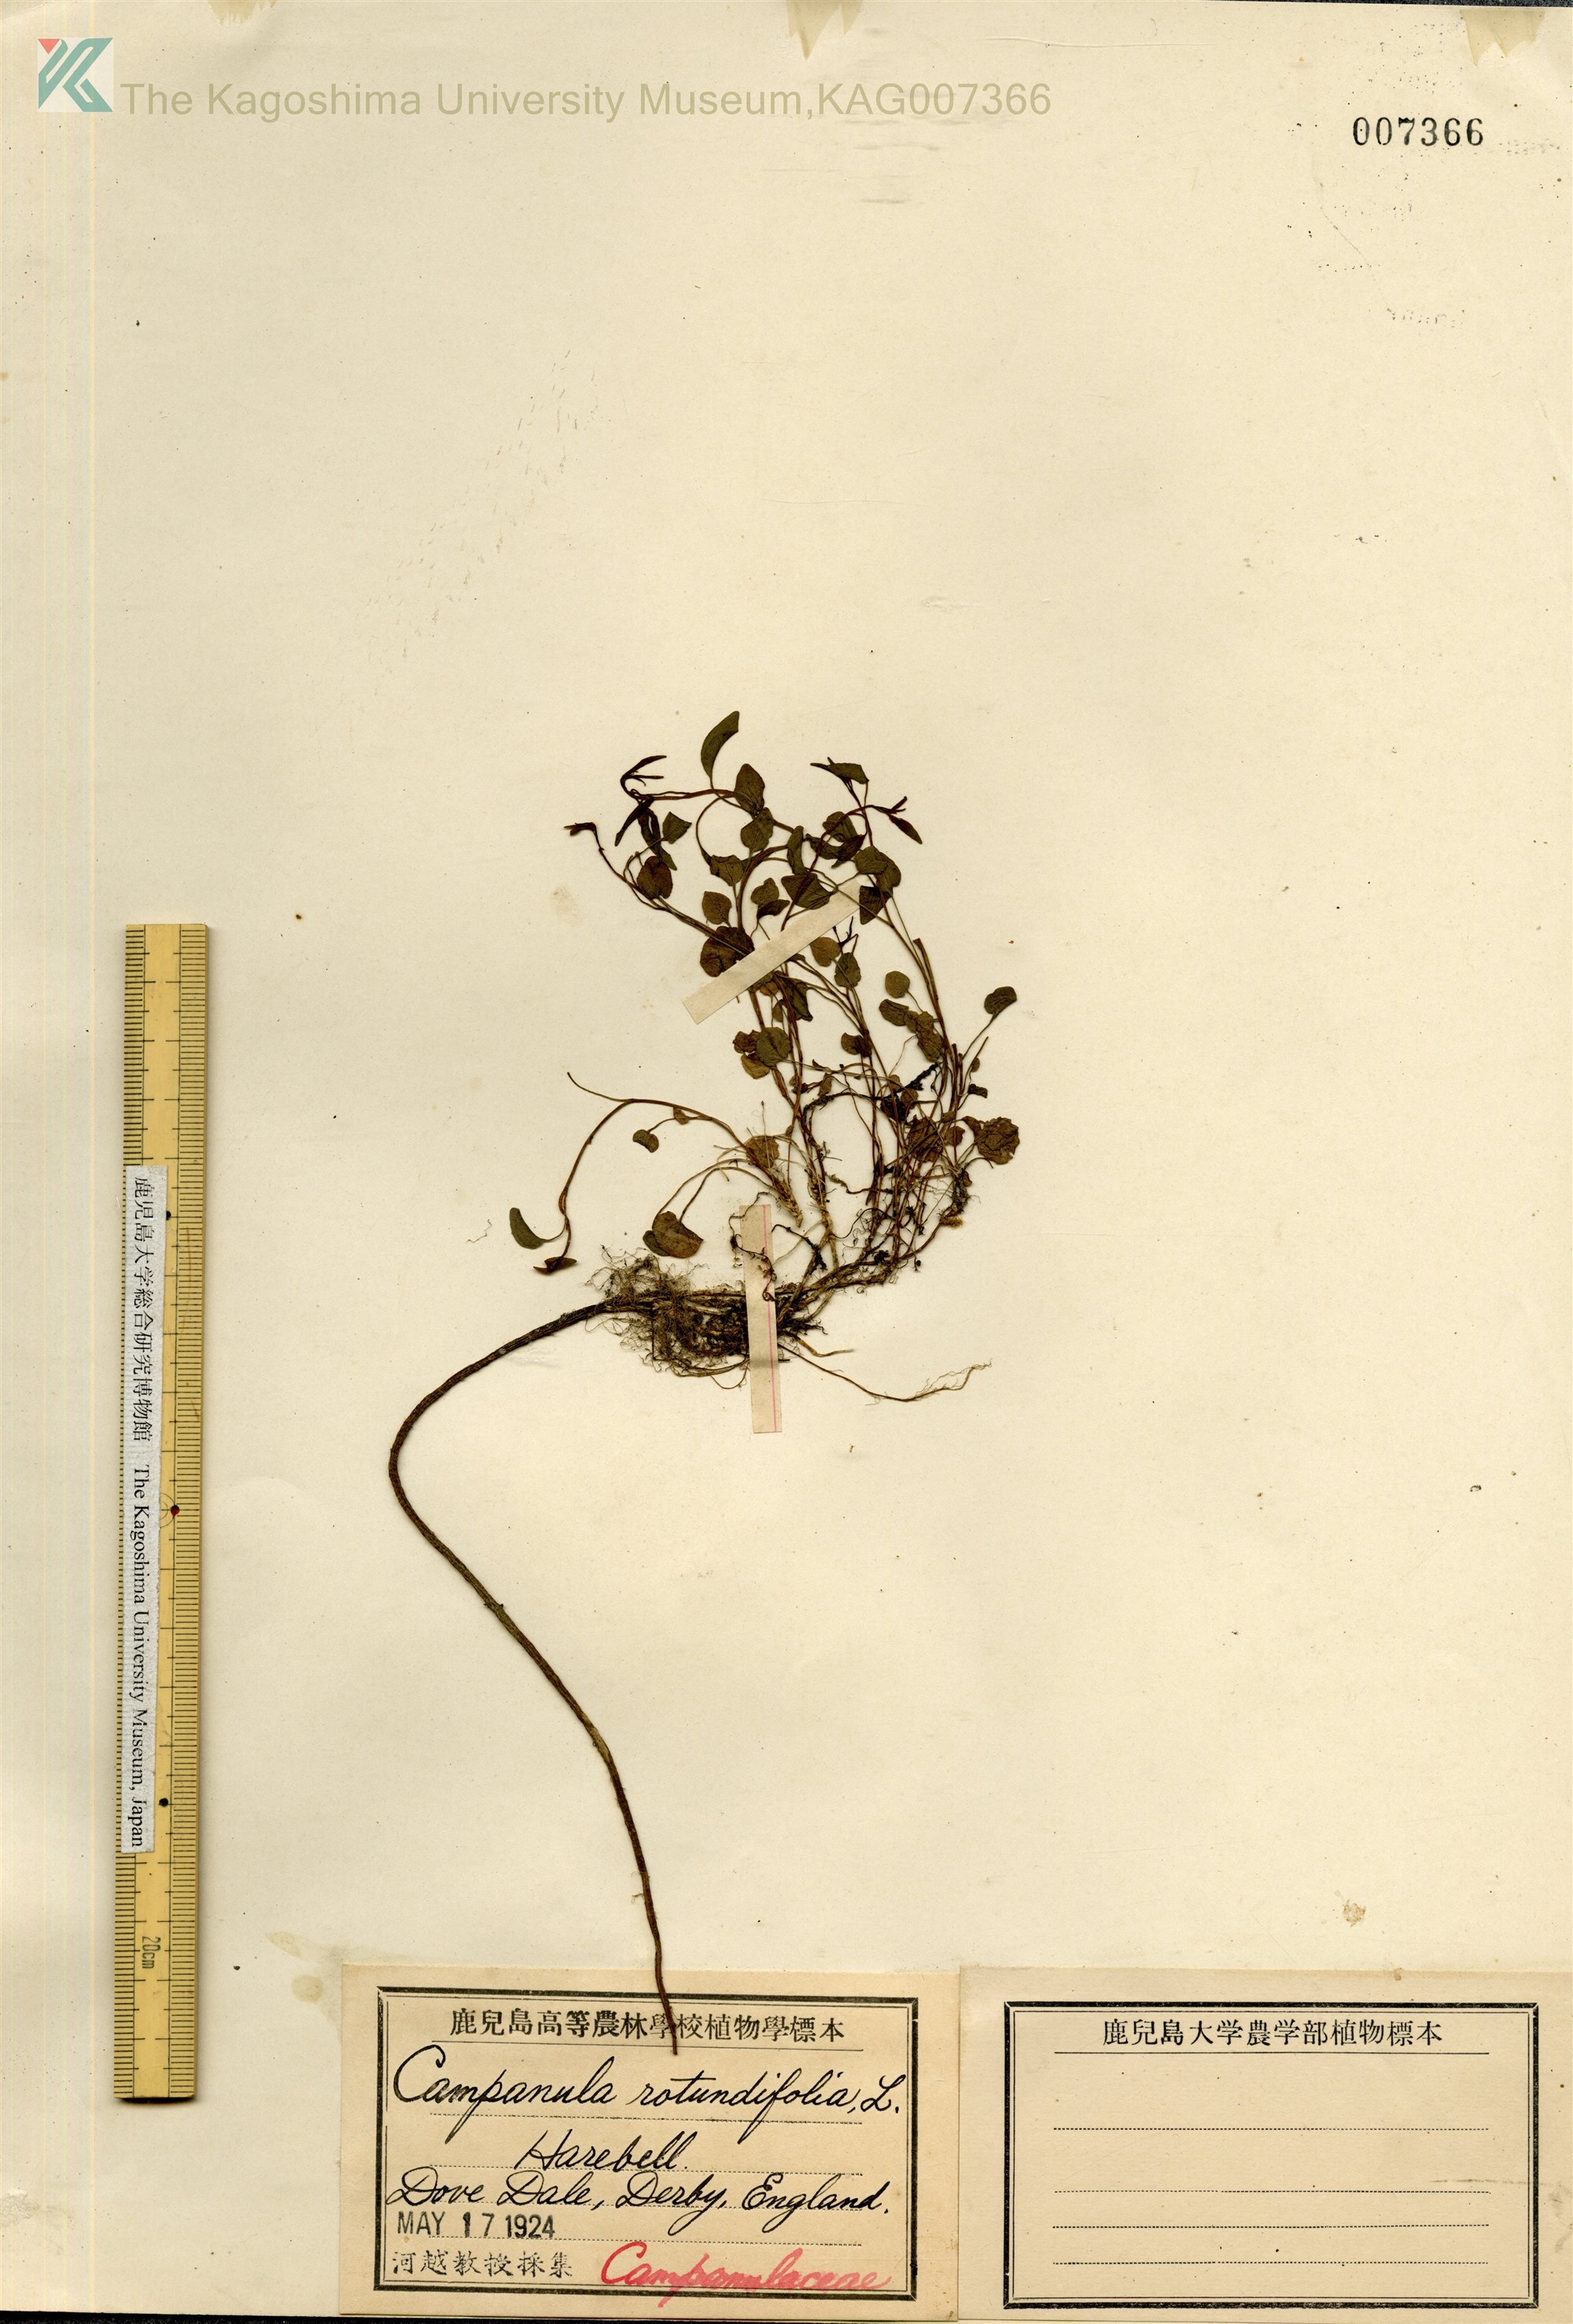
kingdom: Plantae
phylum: Tracheophyta
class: Magnoliopsida
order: Asterales
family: Campanulaceae
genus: Campanula
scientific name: Campanula rotundifolia
